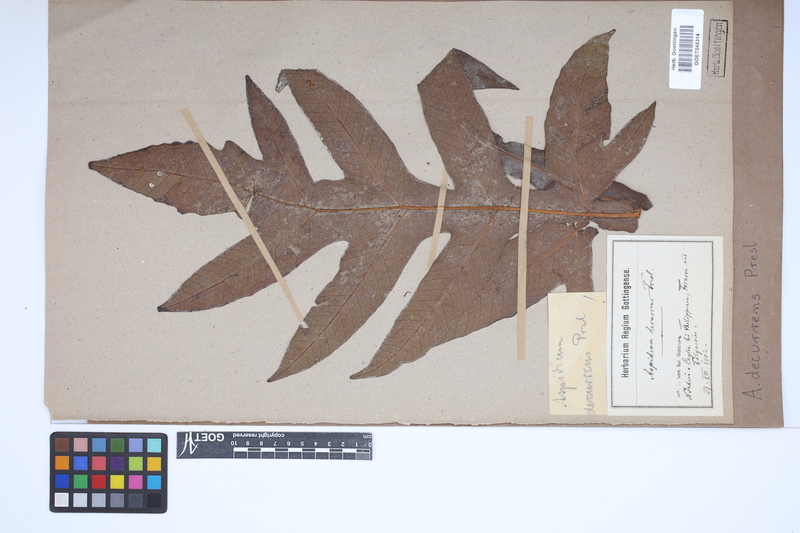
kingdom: Plantae
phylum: Tracheophyta
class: Polypodiopsida
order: Polypodiales
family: Tectariaceae
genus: Tectaria
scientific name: Tectaria decurrens
